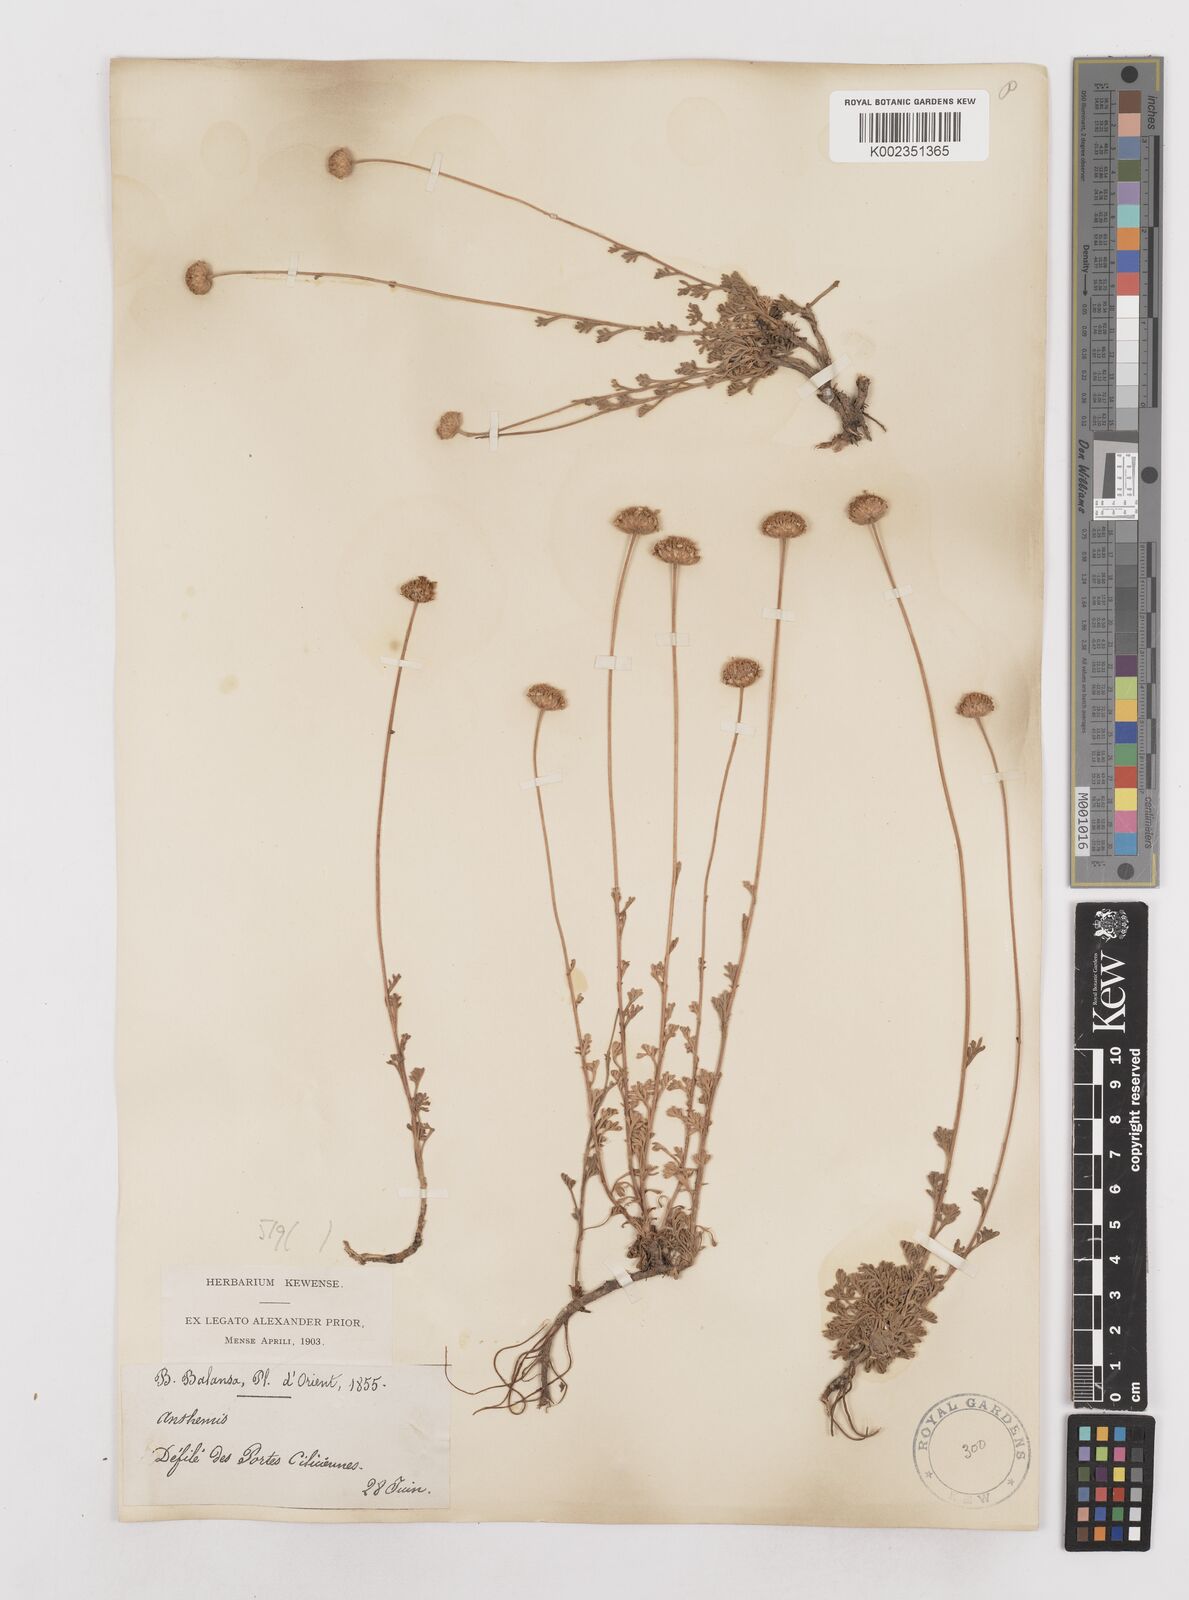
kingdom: Plantae
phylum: Tracheophyta
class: Magnoliopsida
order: Asterales
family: Asteraceae
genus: Anthemis
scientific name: Anthemis kotschyana
